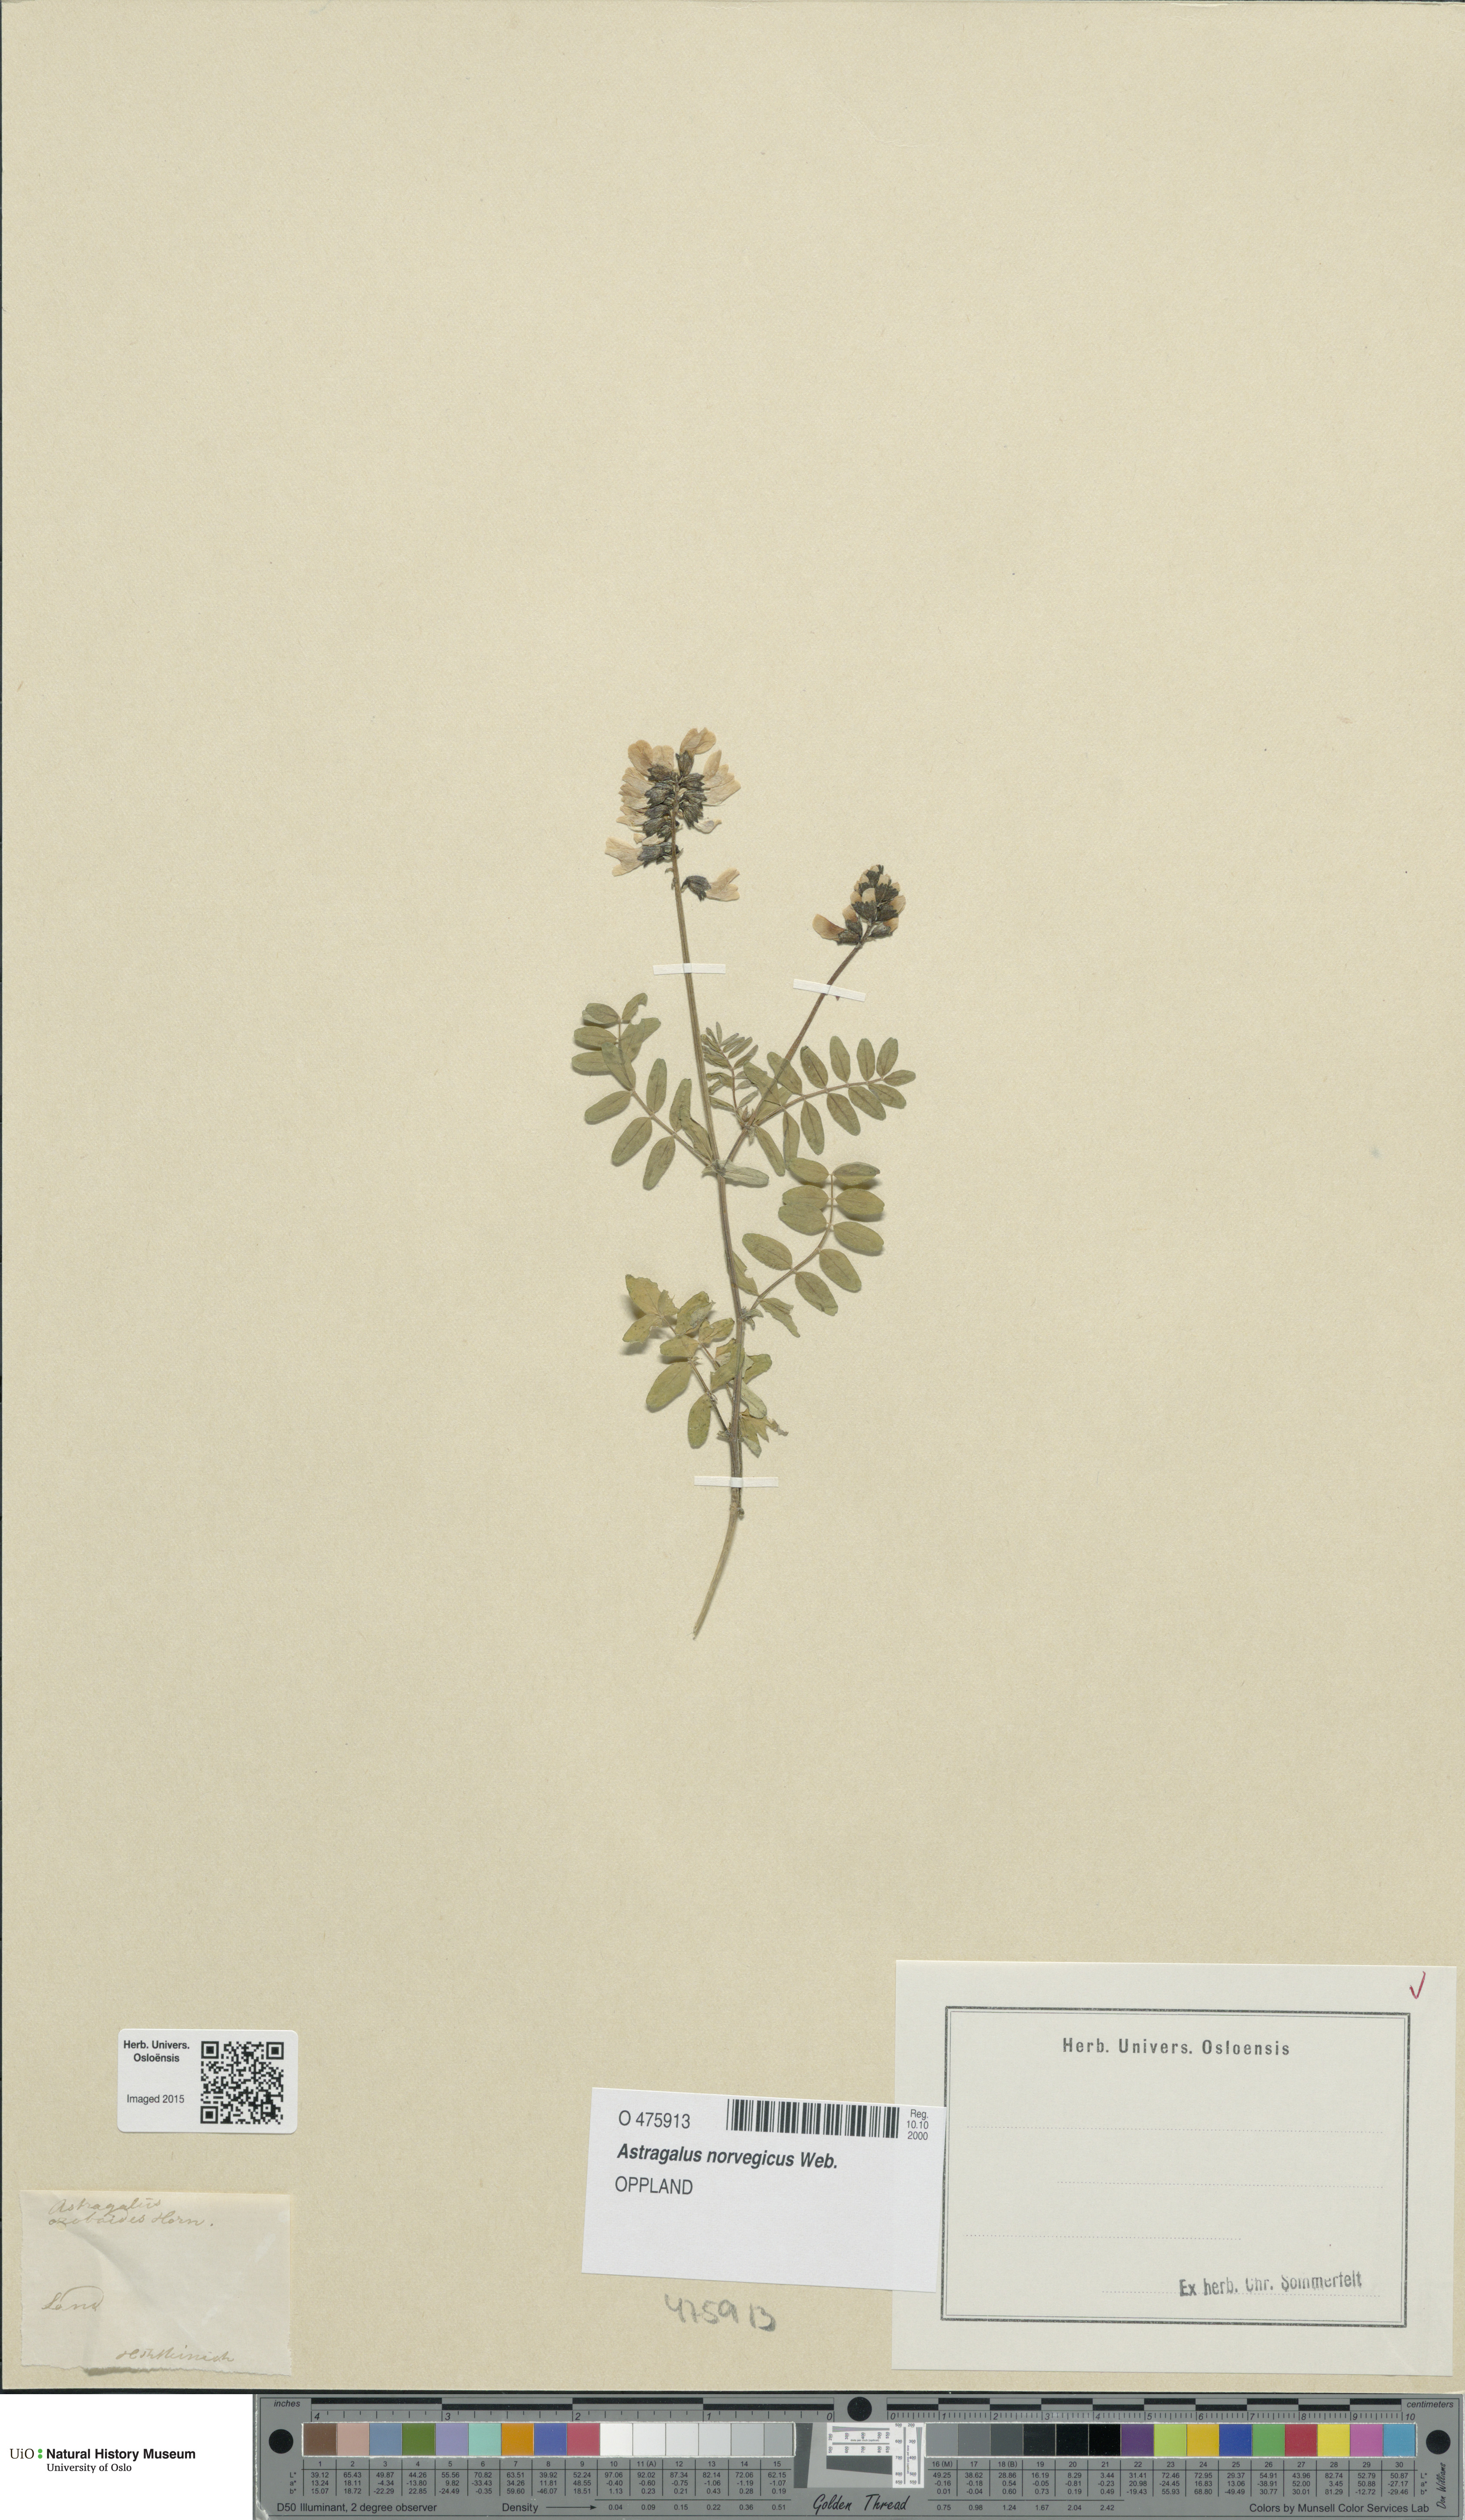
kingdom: Plantae
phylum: Tracheophyta
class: Magnoliopsida
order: Fabales
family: Fabaceae
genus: Astragalus
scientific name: Astragalus norvegicus
